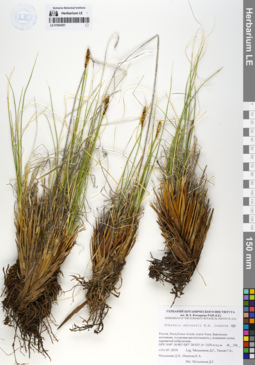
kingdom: Plantae
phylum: Tracheophyta
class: Liliopsida
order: Poales
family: Cyperaceae
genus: Carex
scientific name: Carex borealipolaris
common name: Siberian bog sedge
